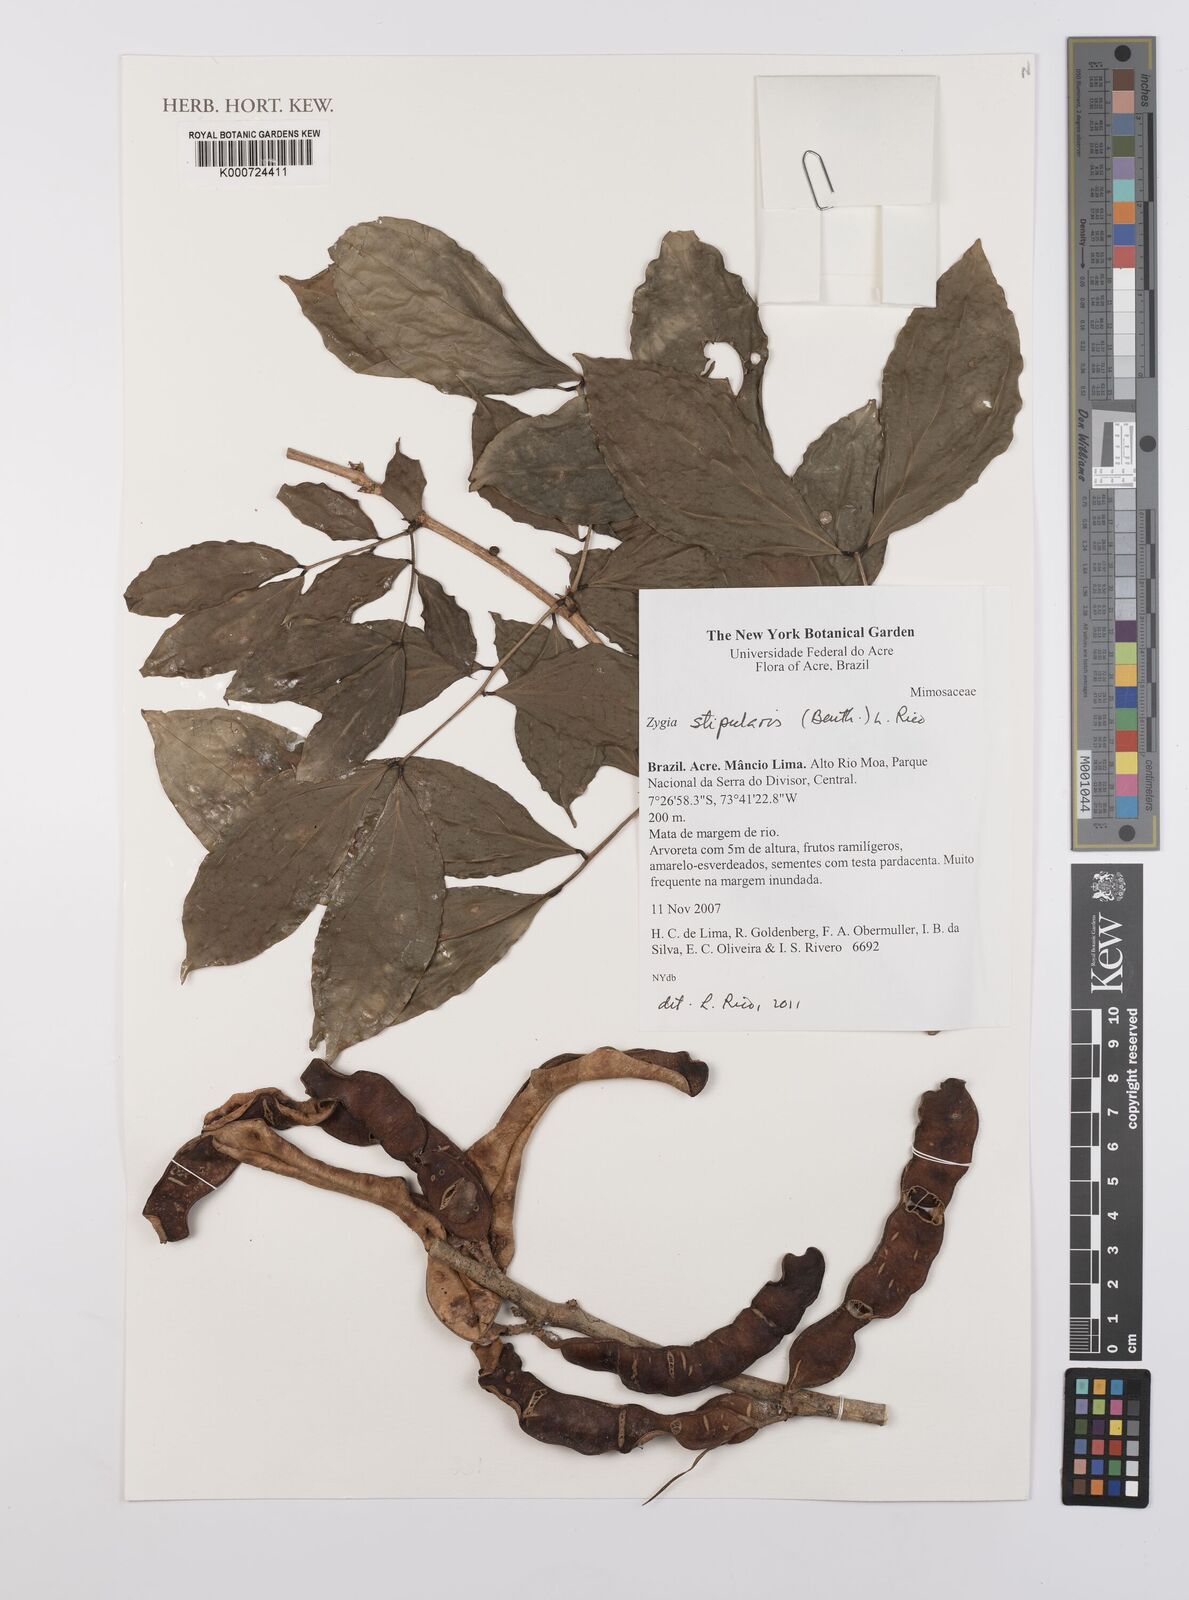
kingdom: Plantae
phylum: Tracheophyta
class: Magnoliopsida
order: Fabales
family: Fabaceae
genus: Zygia
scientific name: Zygia cauliflora
